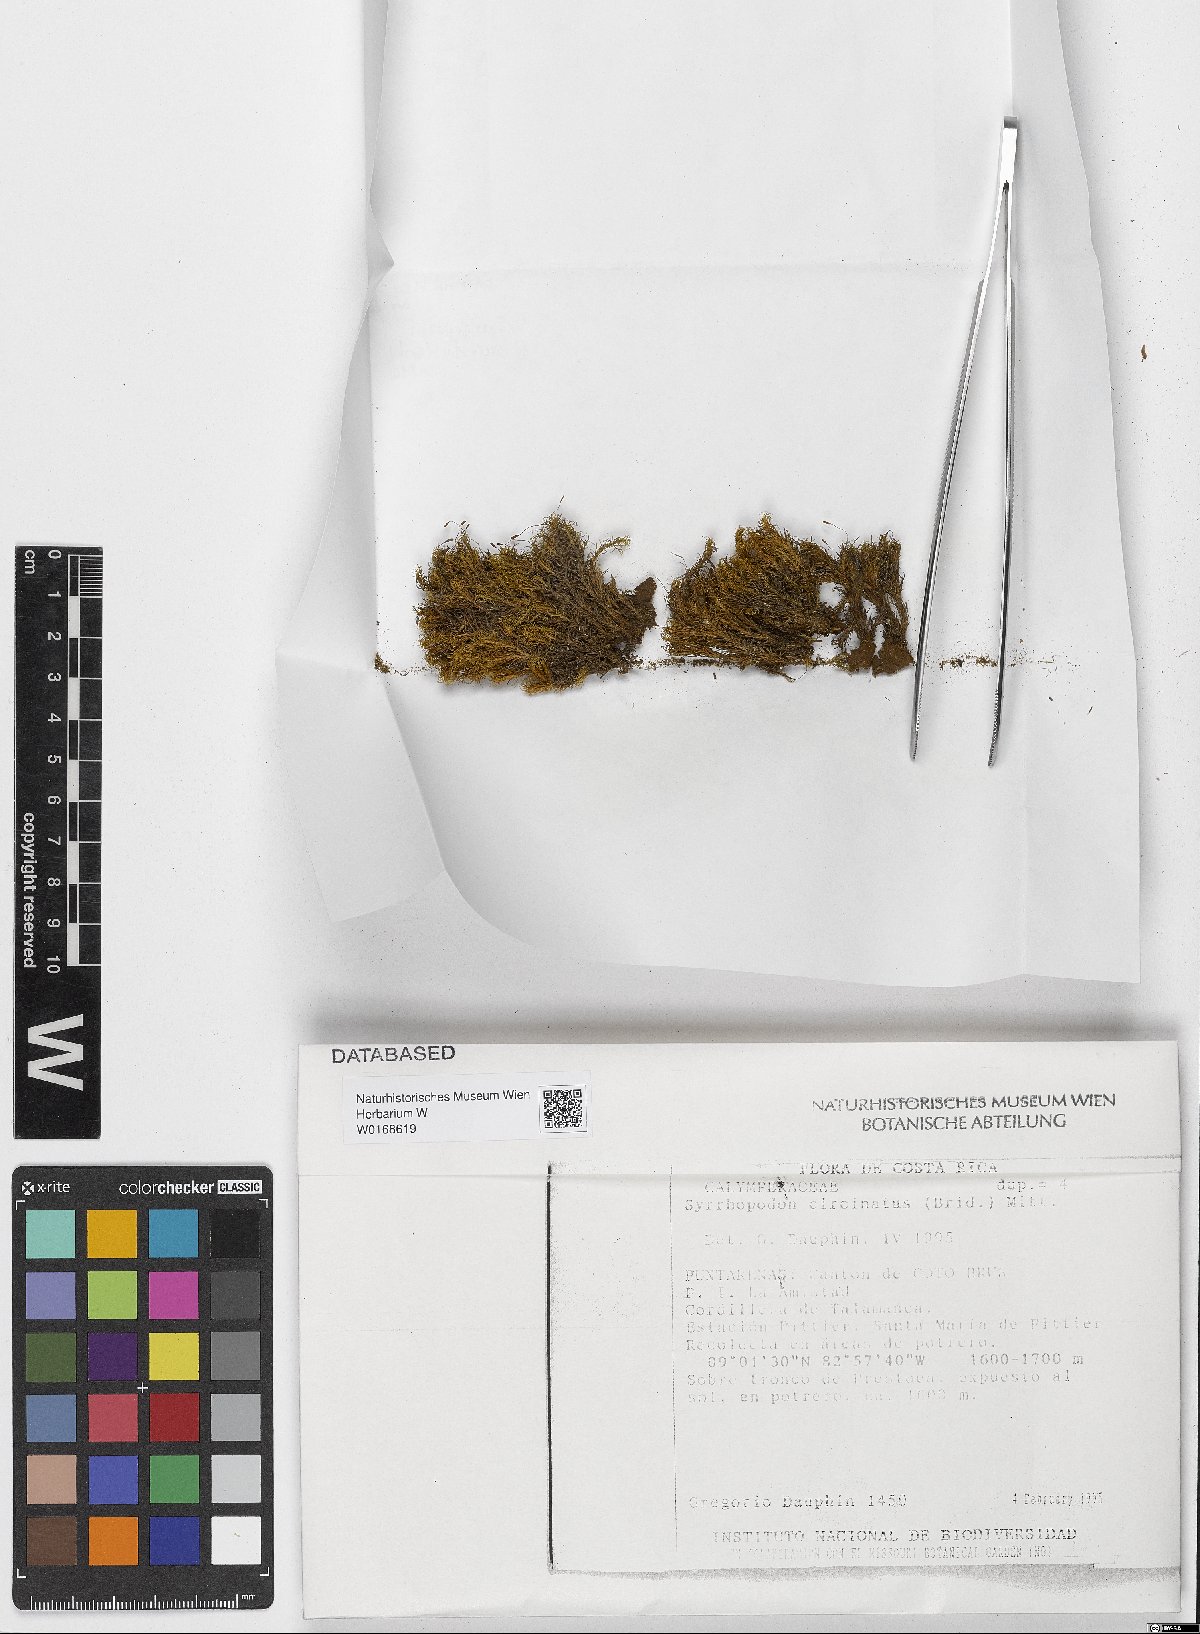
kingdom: Plantae
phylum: Bryophyta
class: Bryopsida
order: Dicranales
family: Calymperaceae
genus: Syrrhopodon
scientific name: Syrrhopodon circinatus
